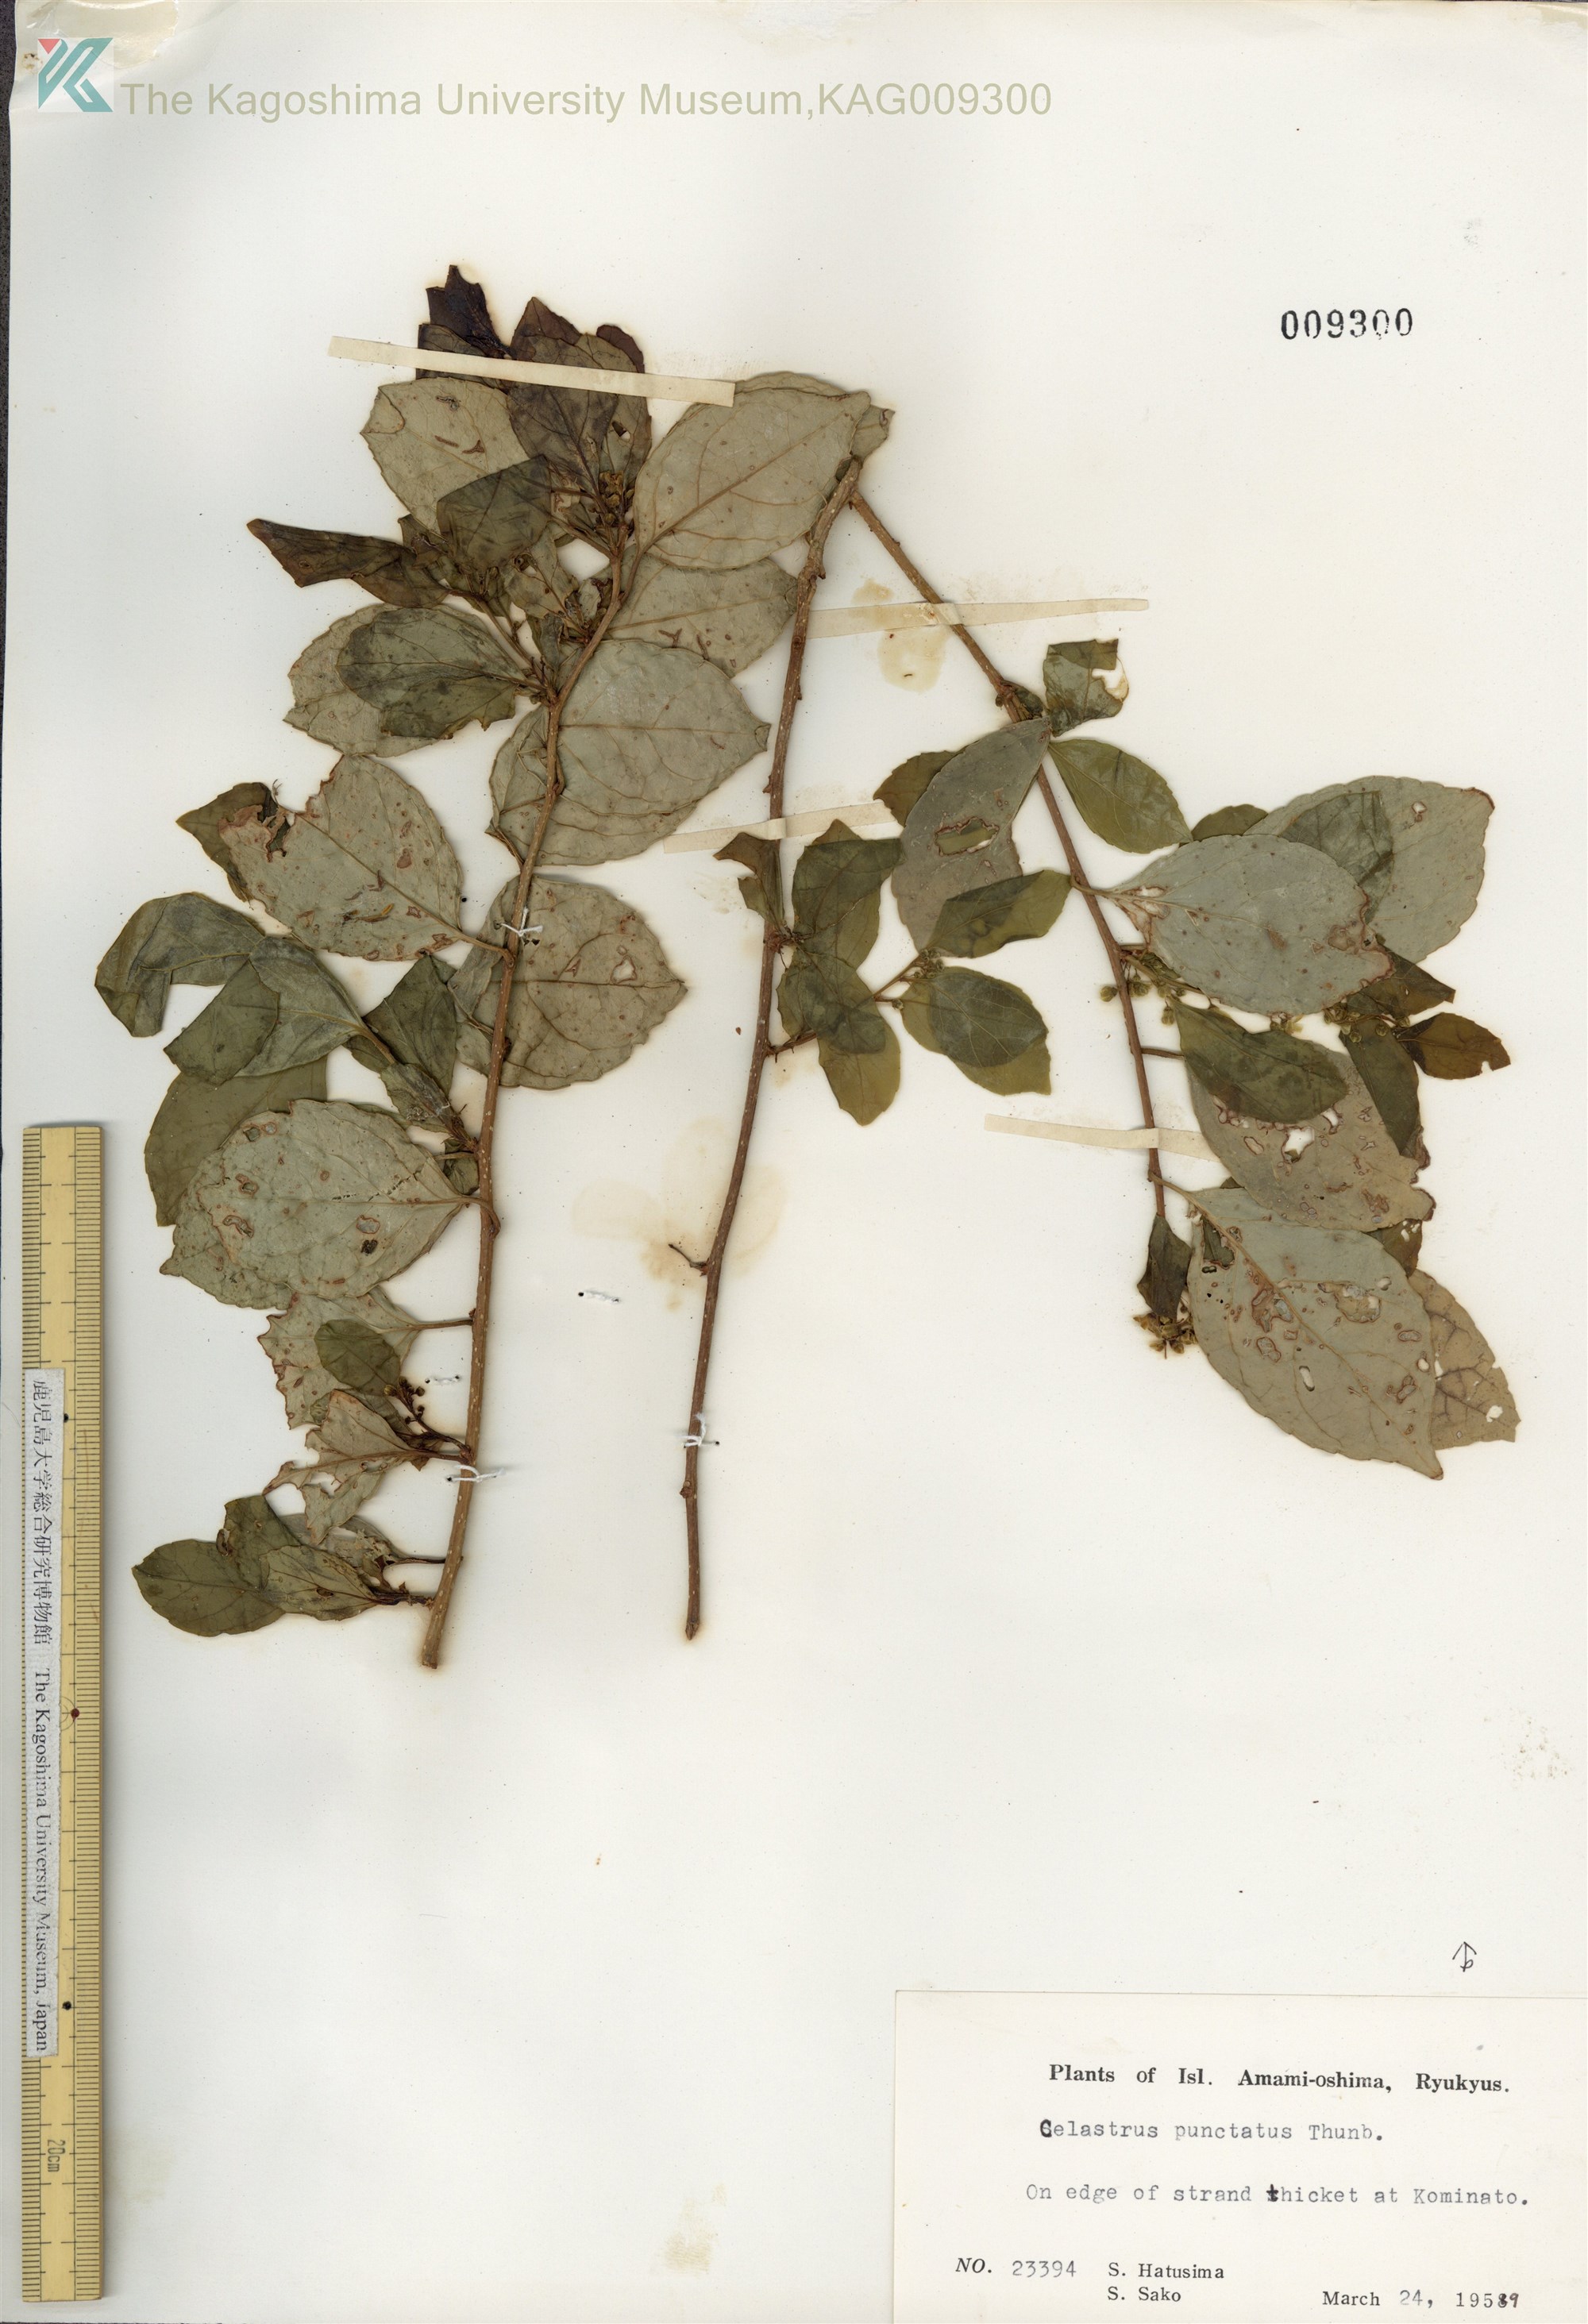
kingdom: Plantae
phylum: Tracheophyta
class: Magnoliopsida
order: Celastrales
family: Celastraceae
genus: Celastrus
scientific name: Celastrus punctatus
